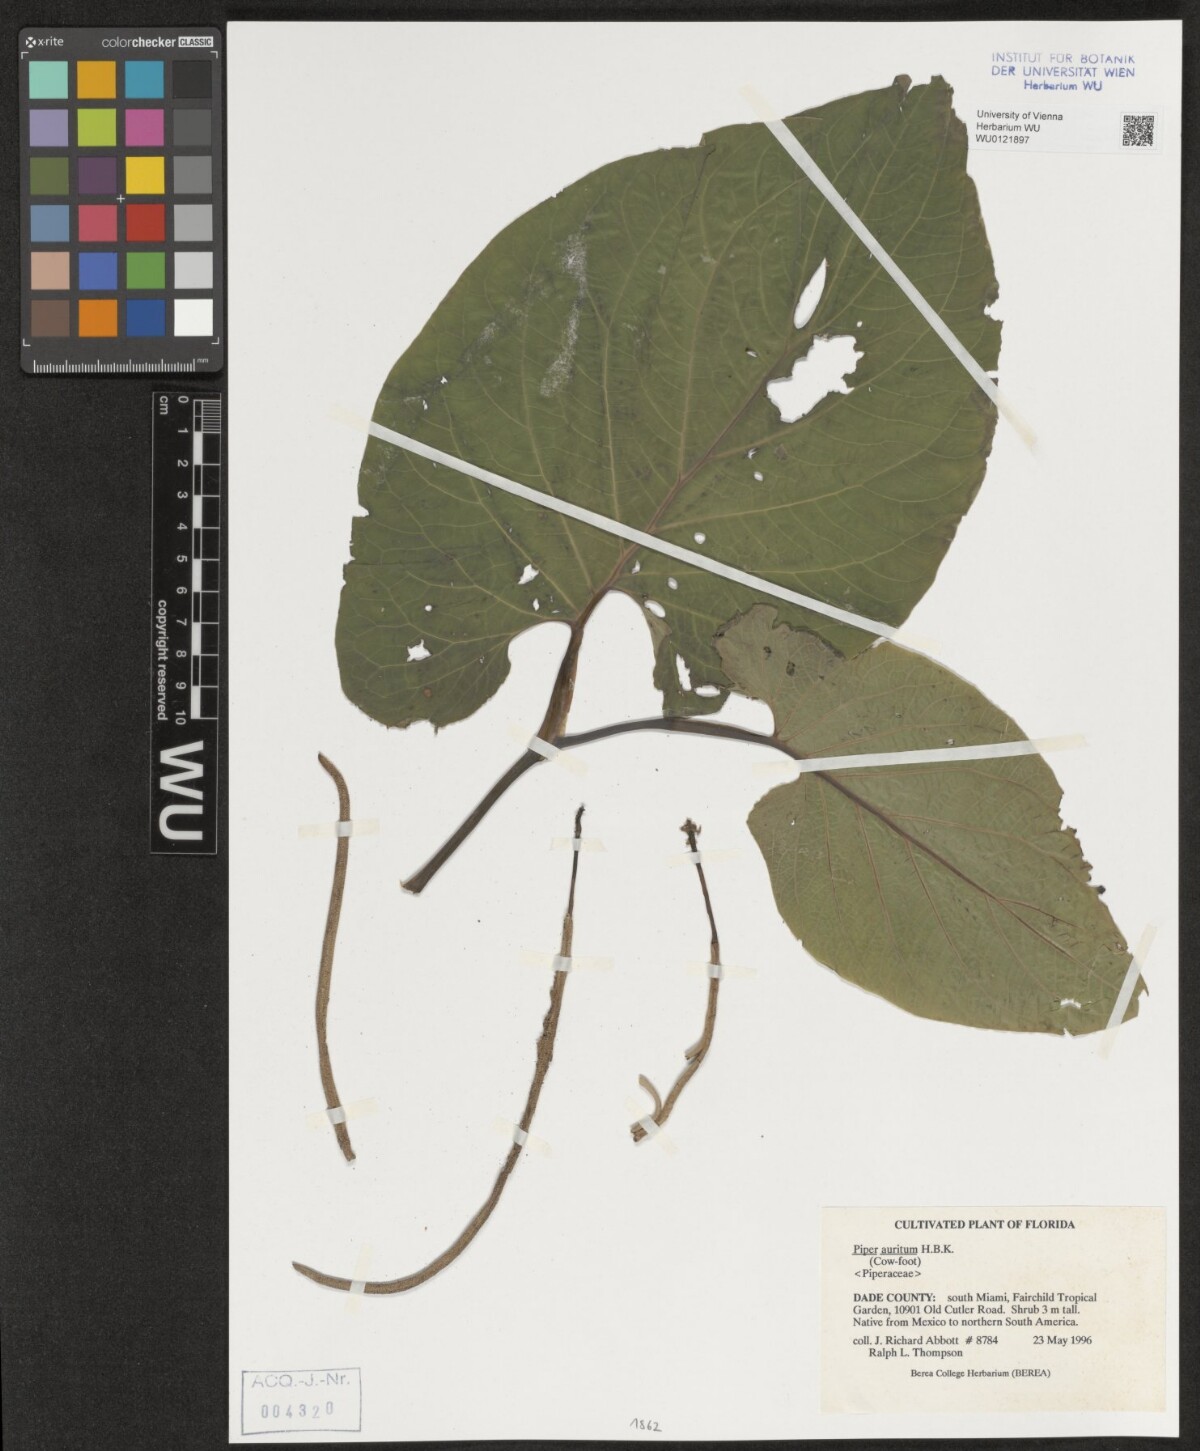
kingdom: Plantae
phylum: Tracheophyta
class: Magnoliopsida
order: Piperales
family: Piperaceae
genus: Piper
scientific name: Piper auritum
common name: Vera cruz pepper
